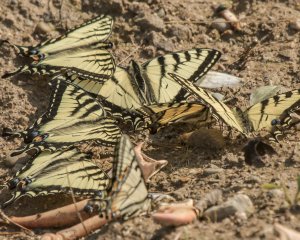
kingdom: Animalia
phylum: Arthropoda
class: Insecta
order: Lepidoptera
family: Papilionidae
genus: Pterourus
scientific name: Pterourus canadensis
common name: Canadian Tiger Swallowtail
